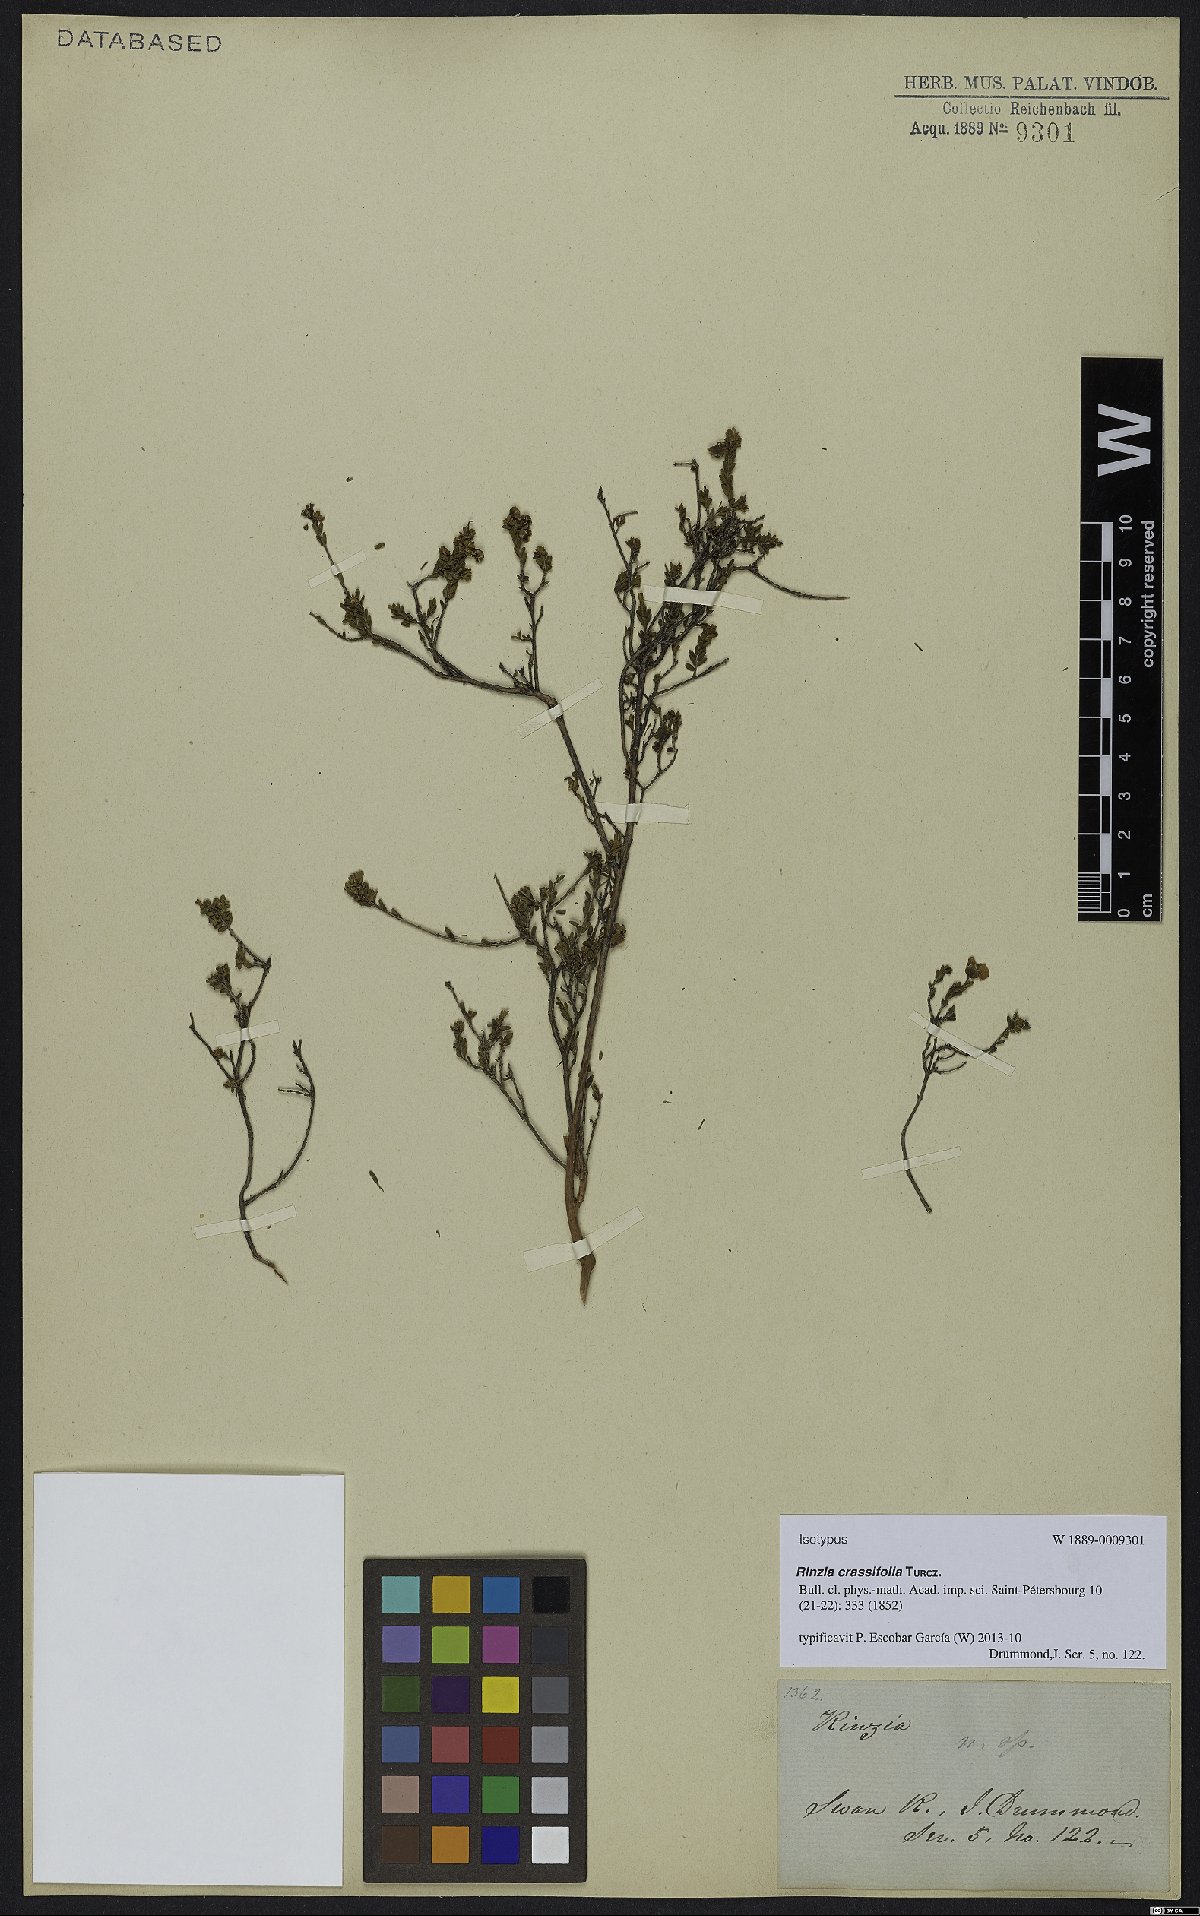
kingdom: Plantae
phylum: Tracheophyta
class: Magnoliopsida
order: Myrtales
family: Myrtaceae
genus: Rinzia
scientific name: Rinzia crassifolia
